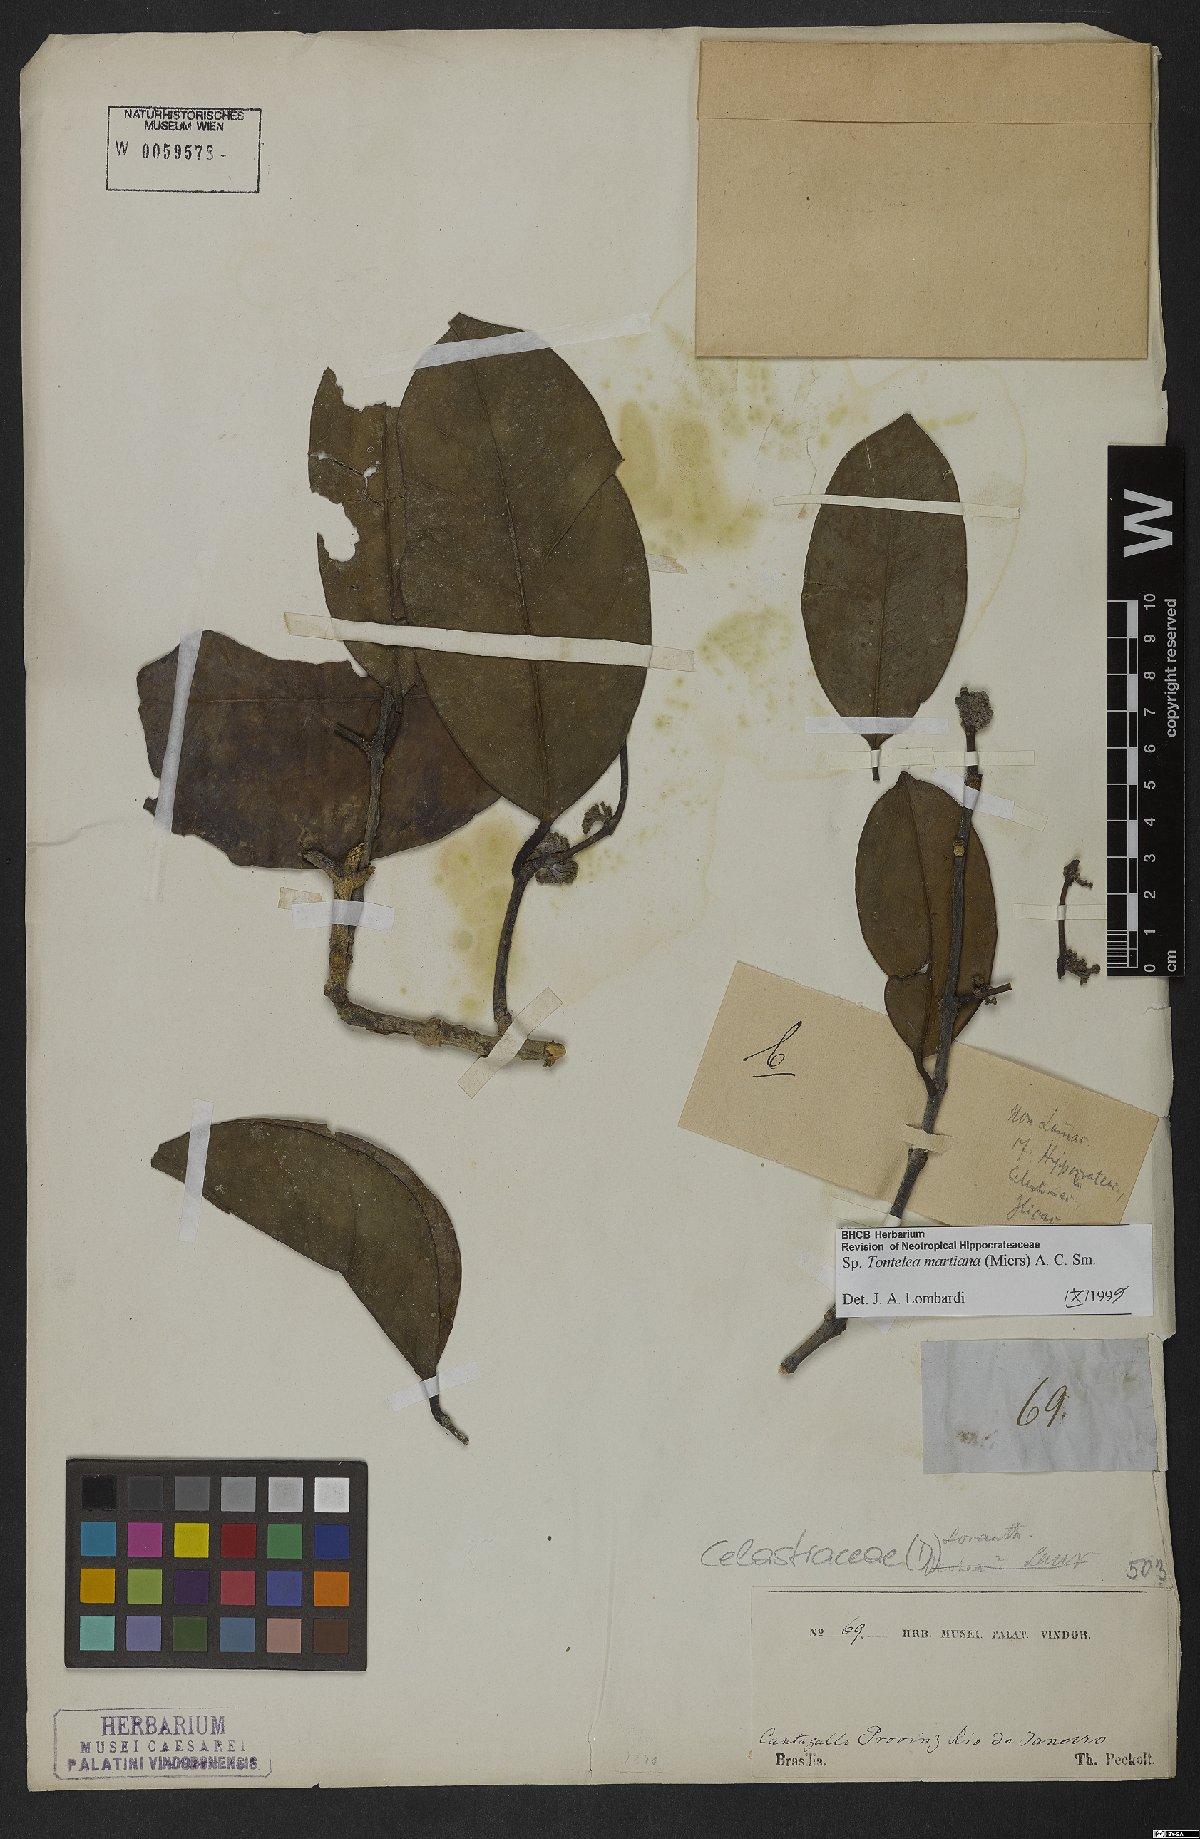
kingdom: Plantae
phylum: Tracheophyta
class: Magnoliopsida
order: Celastrales
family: Celastraceae
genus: Tontelea
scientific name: Tontelea martiana
